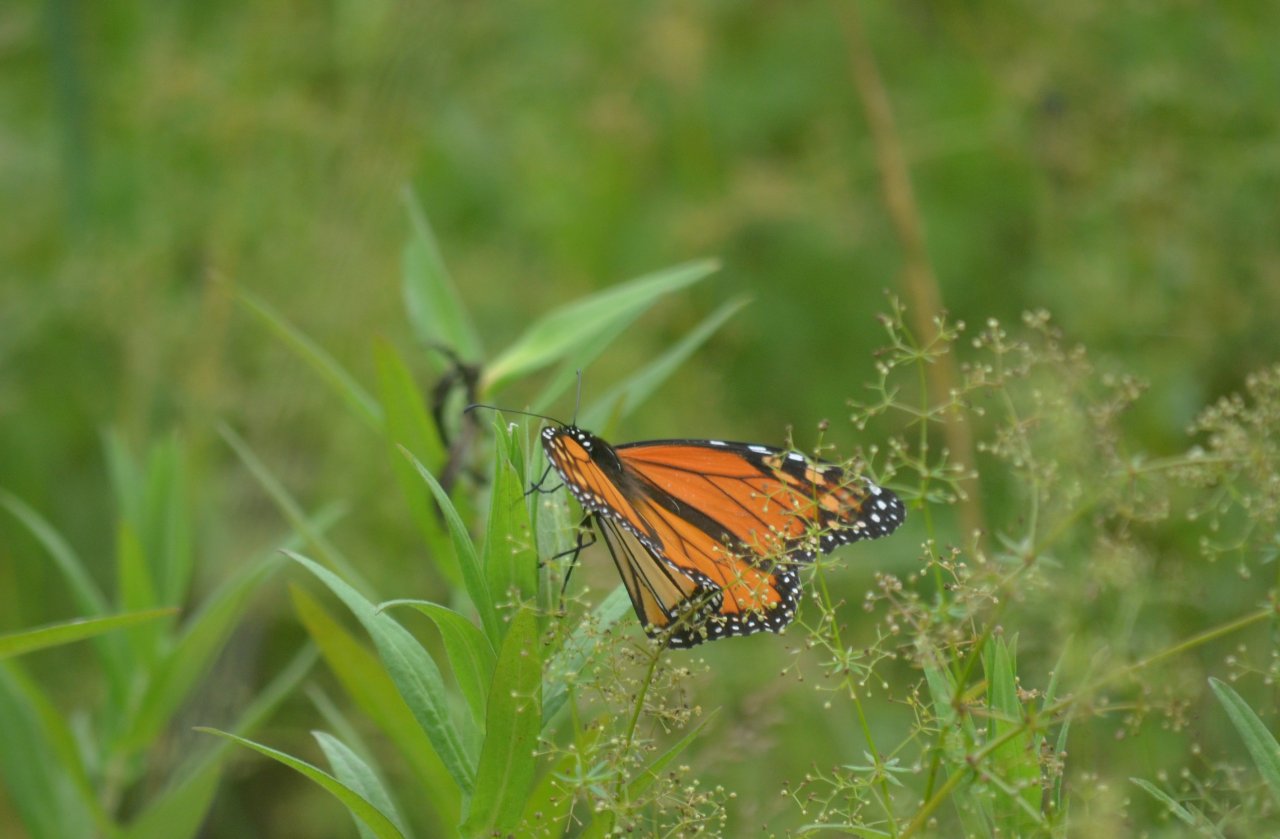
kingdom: Animalia
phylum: Arthropoda
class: Insecta
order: Lepidoptera
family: Nymphalidae
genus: Danaus
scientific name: Danaus plexippus
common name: Monarch
